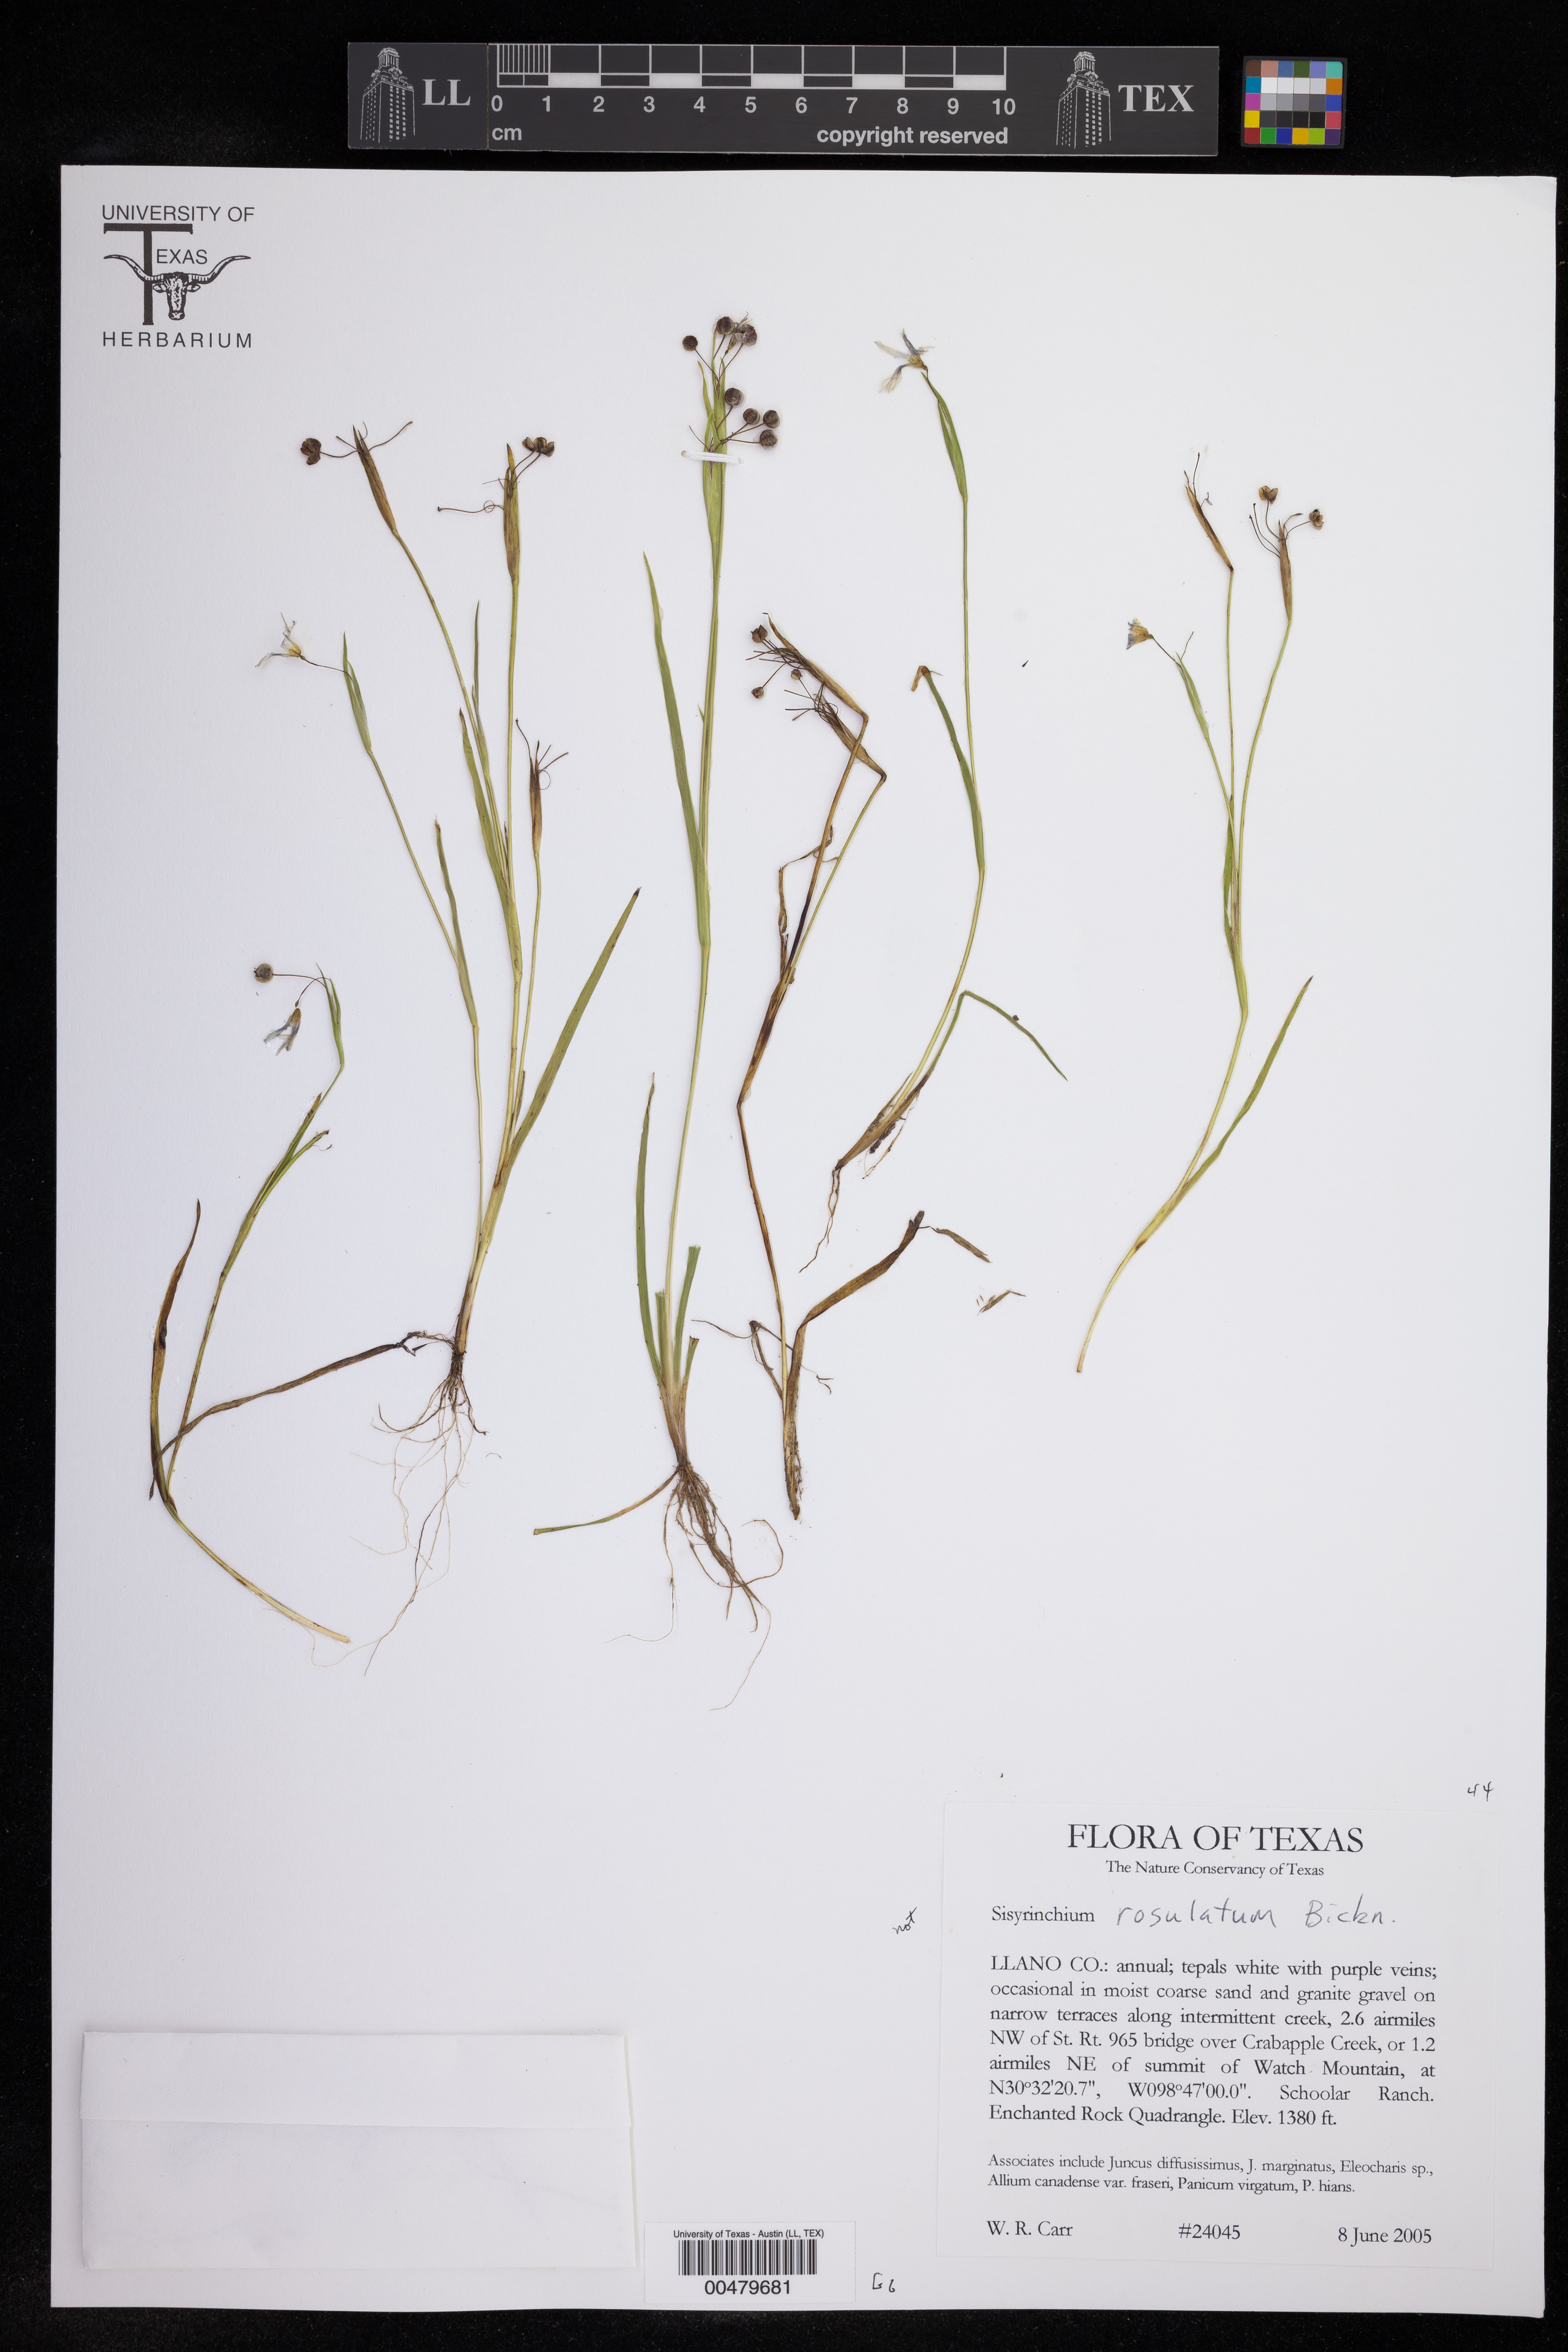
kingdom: Plantae
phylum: Tracheophyta
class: Liliopsida
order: Asparagales
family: Iridaceae
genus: Sisyrinchium
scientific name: Sisyrinchium
